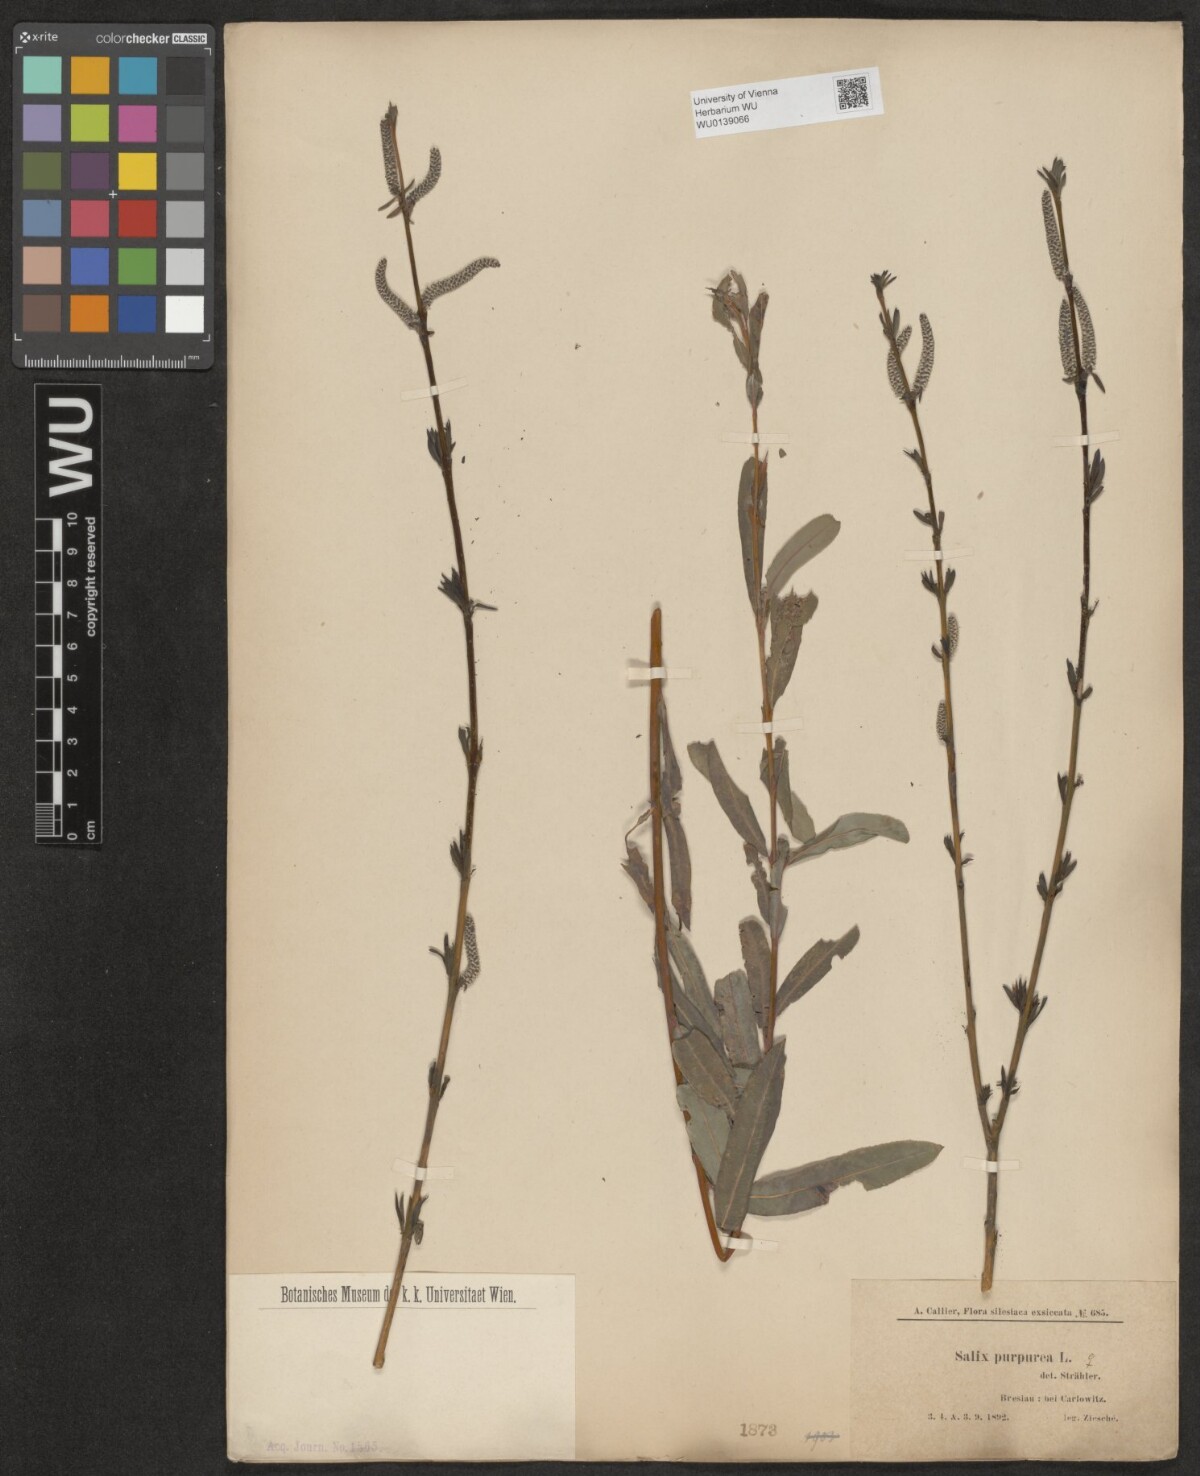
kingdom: Plantae
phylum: Tracheophyta
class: Magnoliopsida
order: Malpighiales
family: Salicaceae
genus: Salix
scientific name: Salix purpurea
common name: Purple willow
